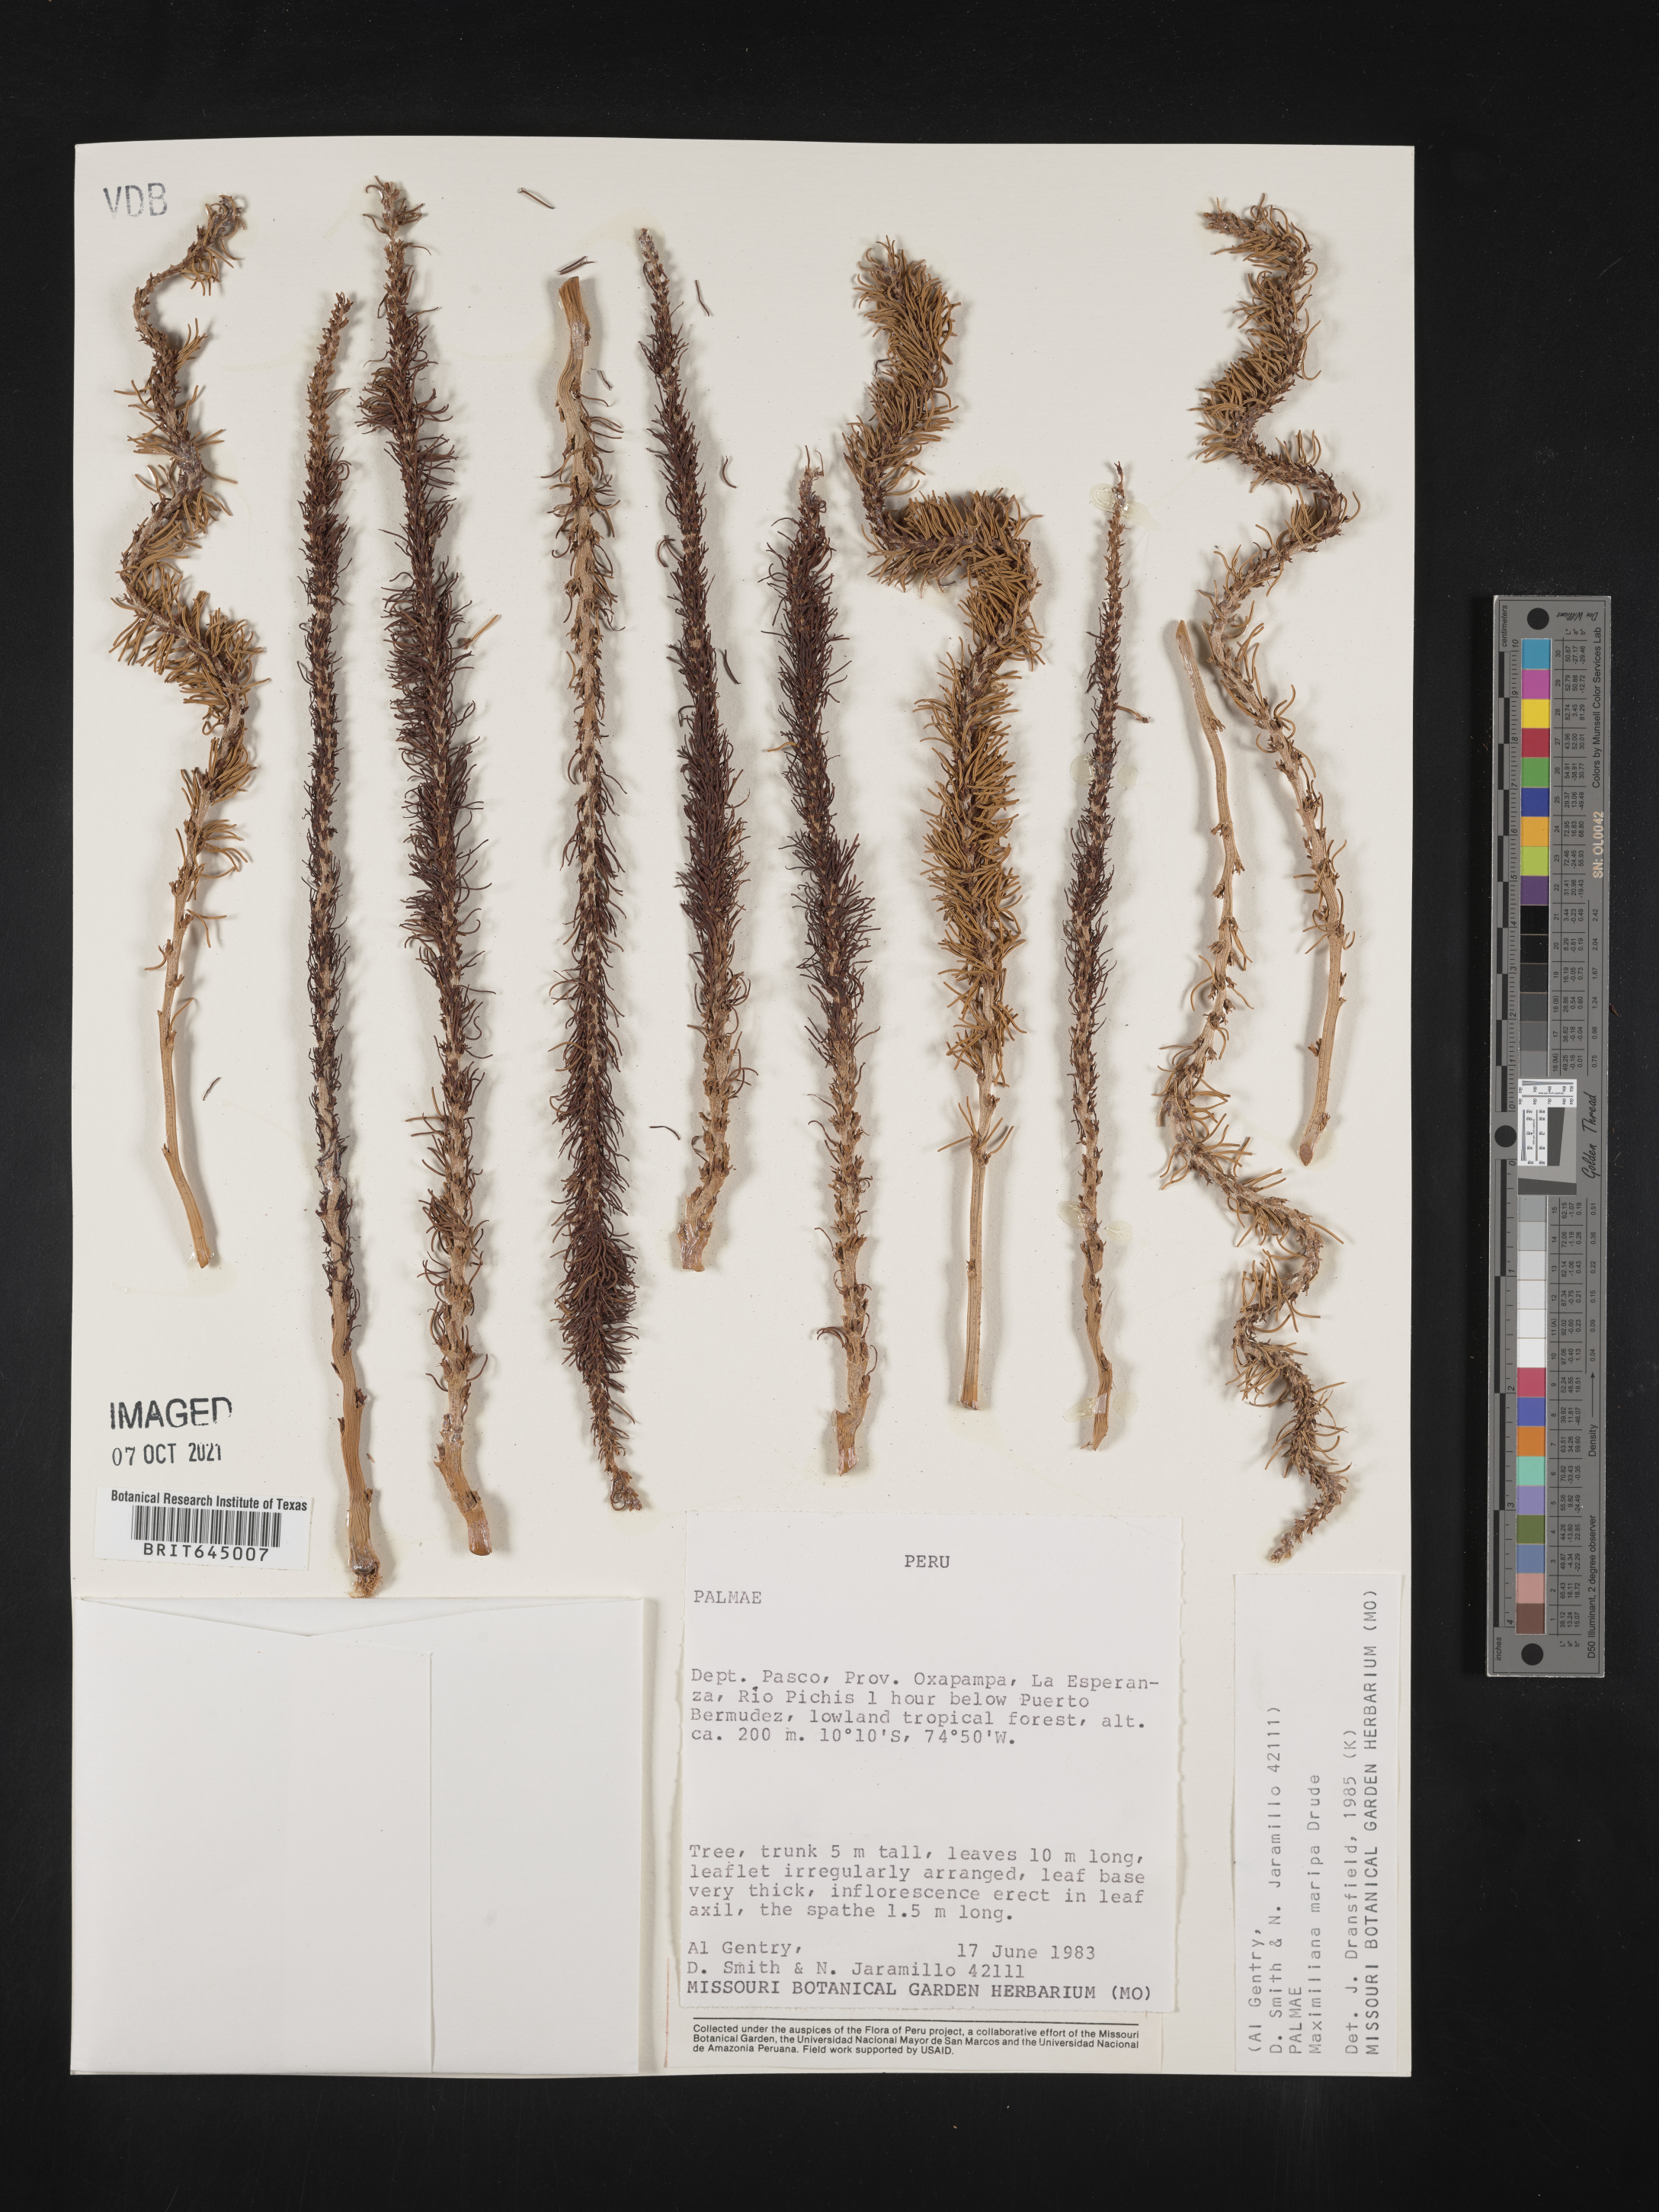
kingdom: Plantae
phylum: Tracheophyta
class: Liliopsida
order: Arecales
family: Arecaceae
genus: Attalea
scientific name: Attalea maripa
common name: Maripa palm
